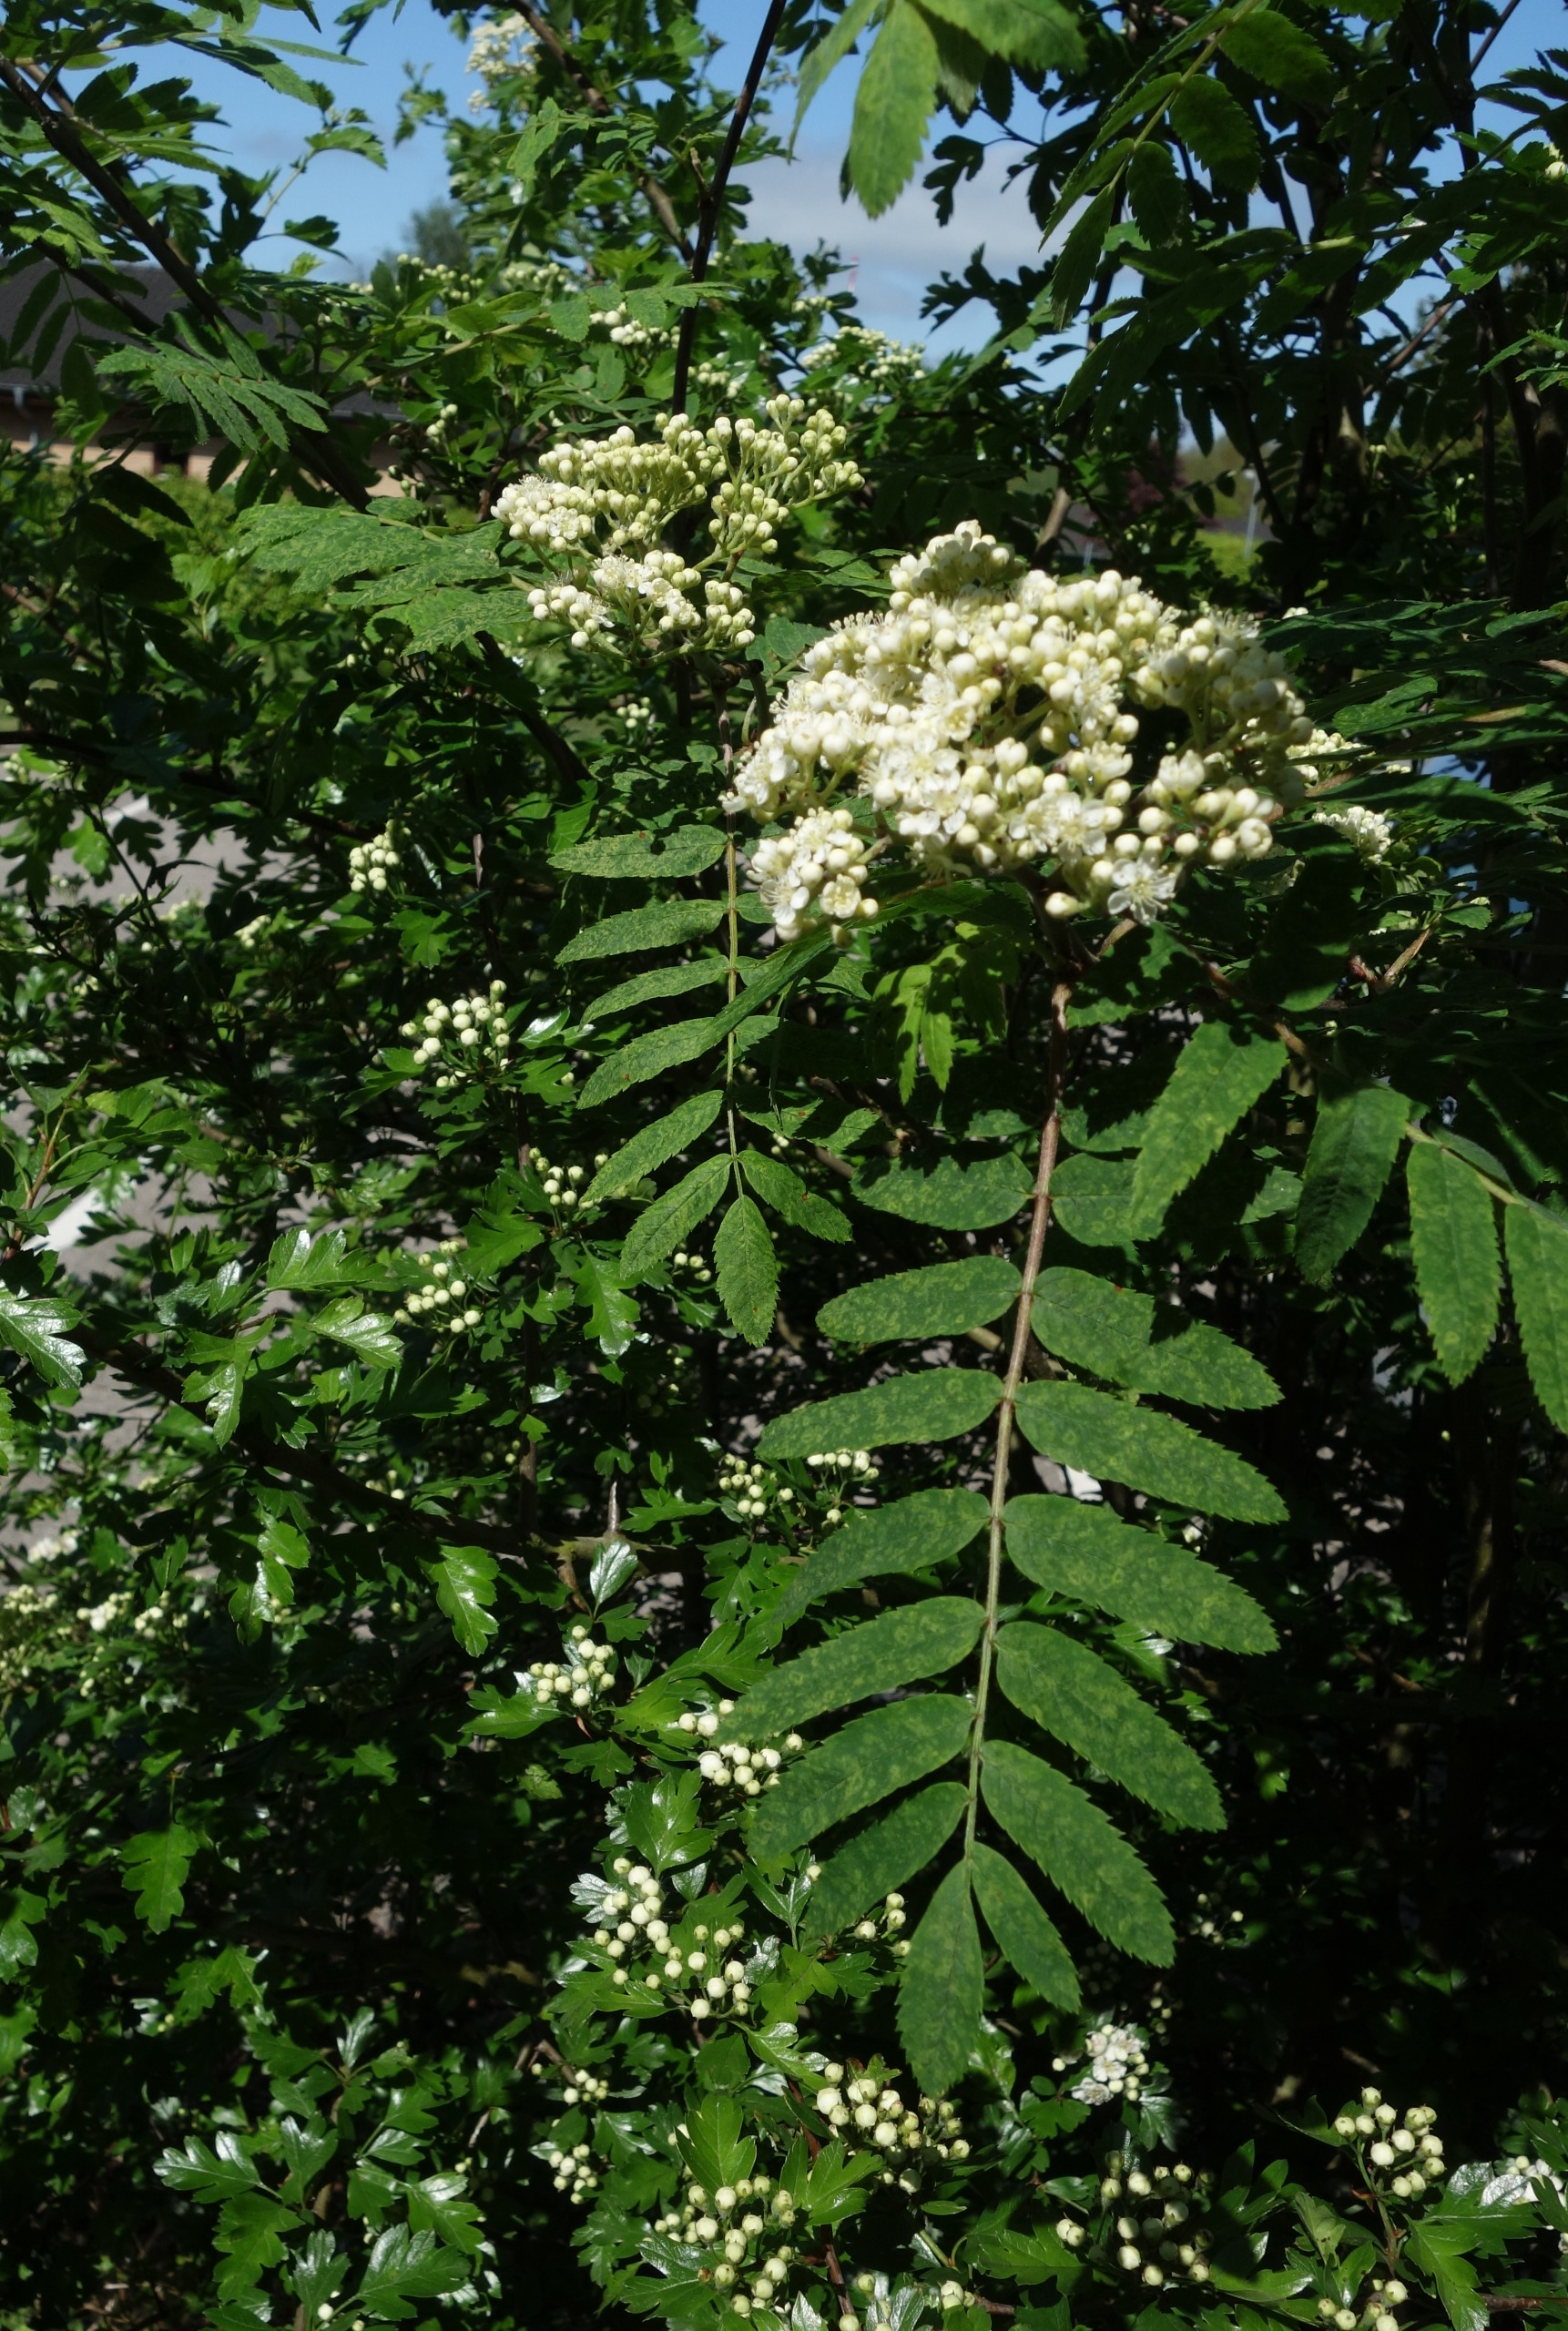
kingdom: Plantae
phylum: Tracheophyta
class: Magnoliopsida
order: Rosales
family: Rosaceae
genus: Sorbus
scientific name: Sorbus aucuparia
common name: Almindelig røn
